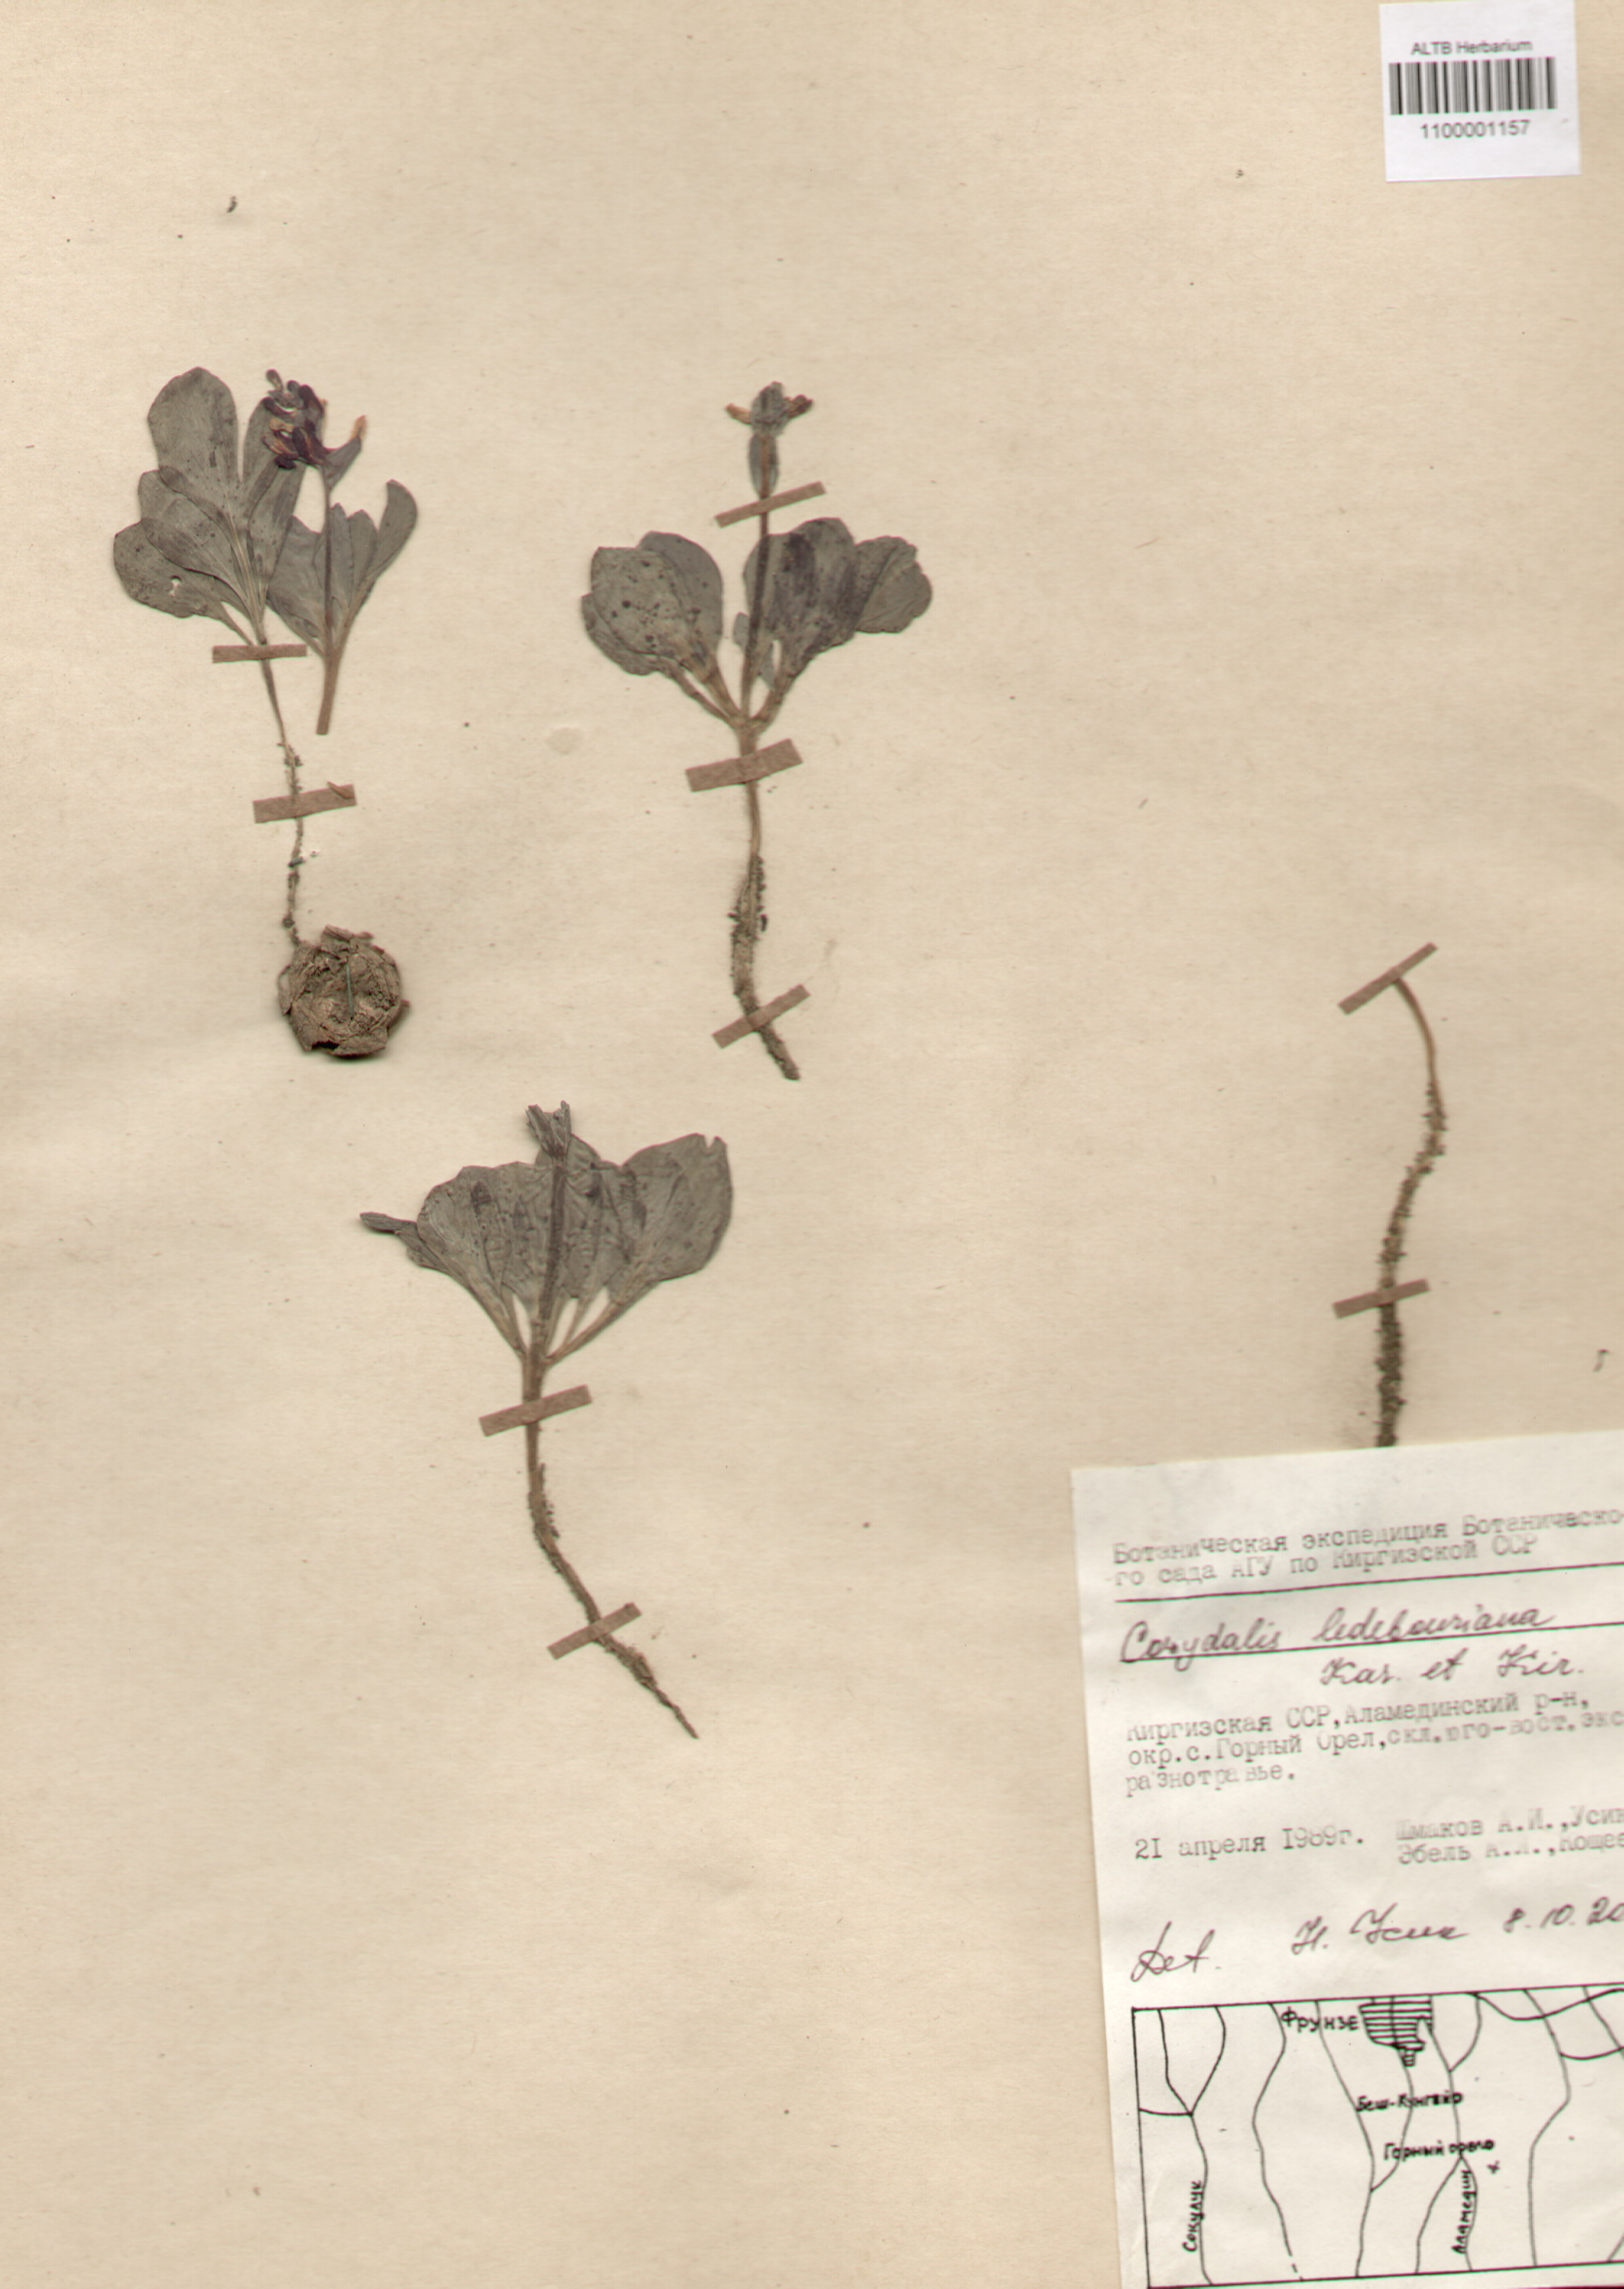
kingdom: Plantae
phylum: Tracheophyta
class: Magnoliopsida
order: Ranunculales
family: Papaveraceae
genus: Corydalis
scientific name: Corydalis ledebouriana
